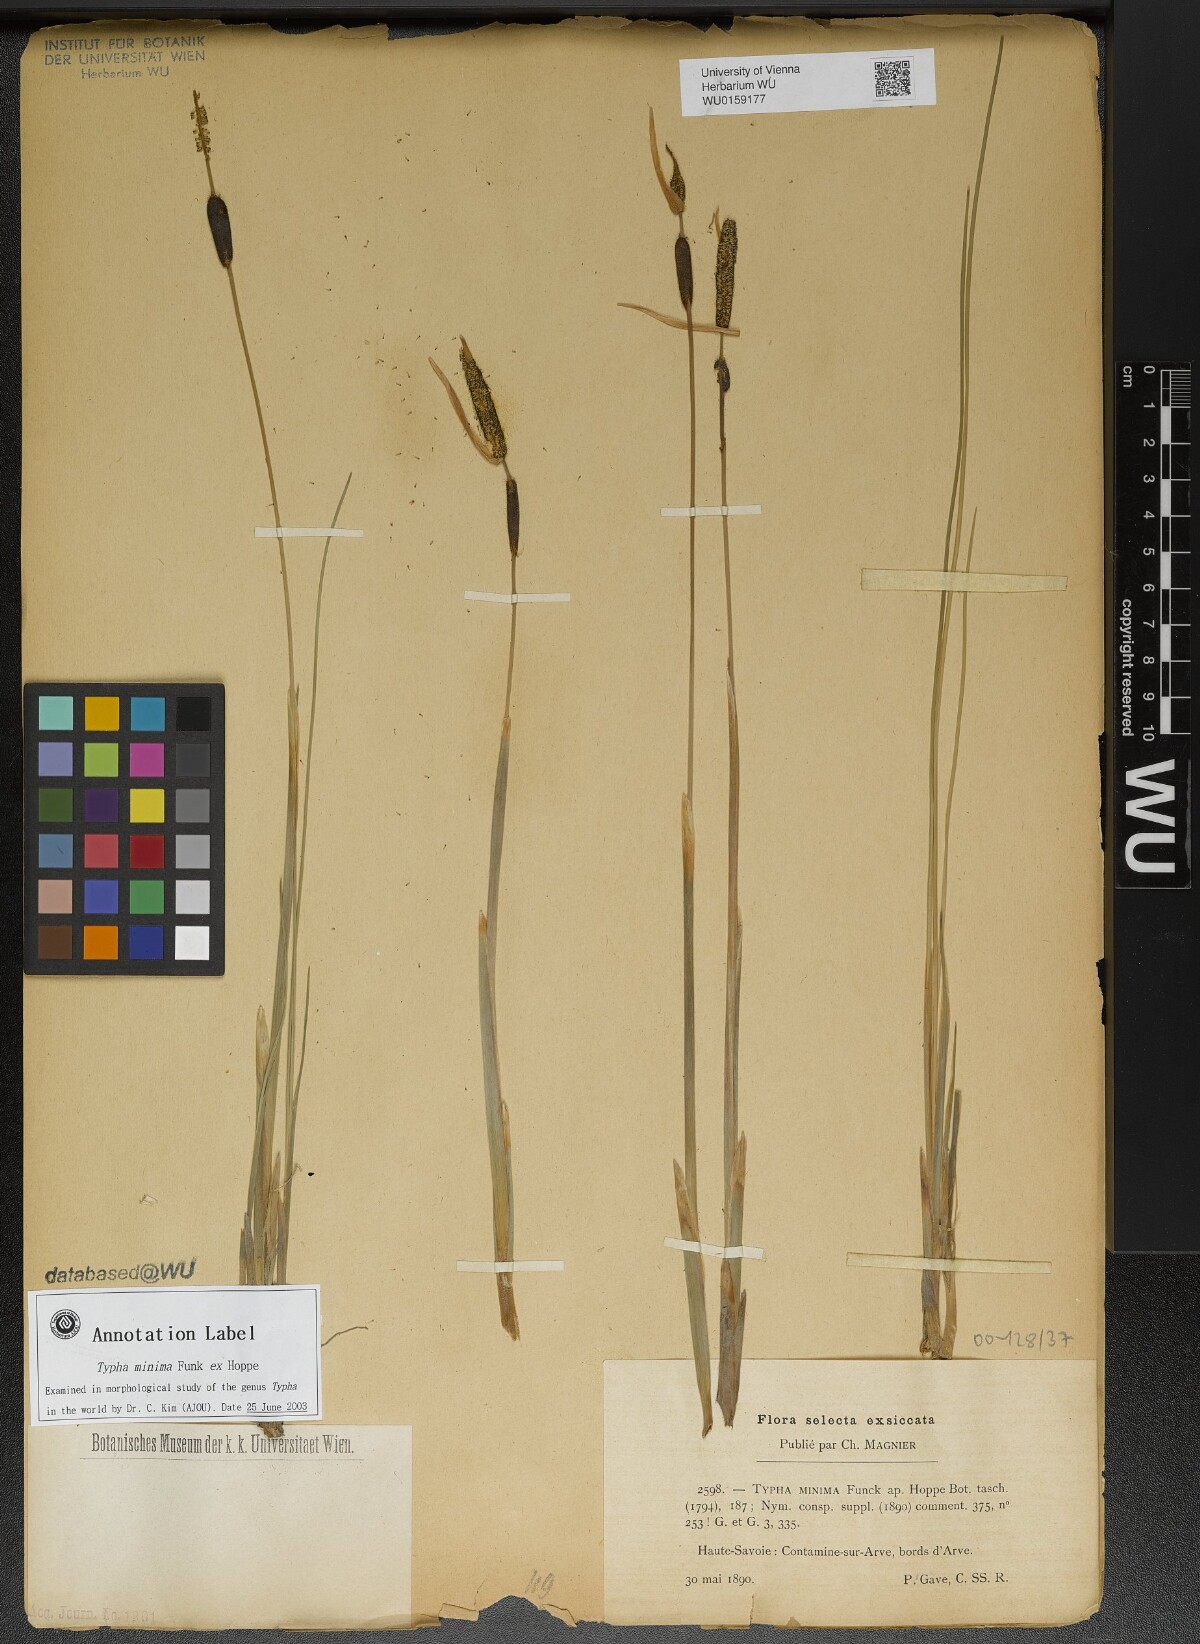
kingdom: Plantae
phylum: Tracheophyta
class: Liliopsida
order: Poales
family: Typhaceae
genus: Typha
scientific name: Typha minima
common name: Dwarf bulrush
